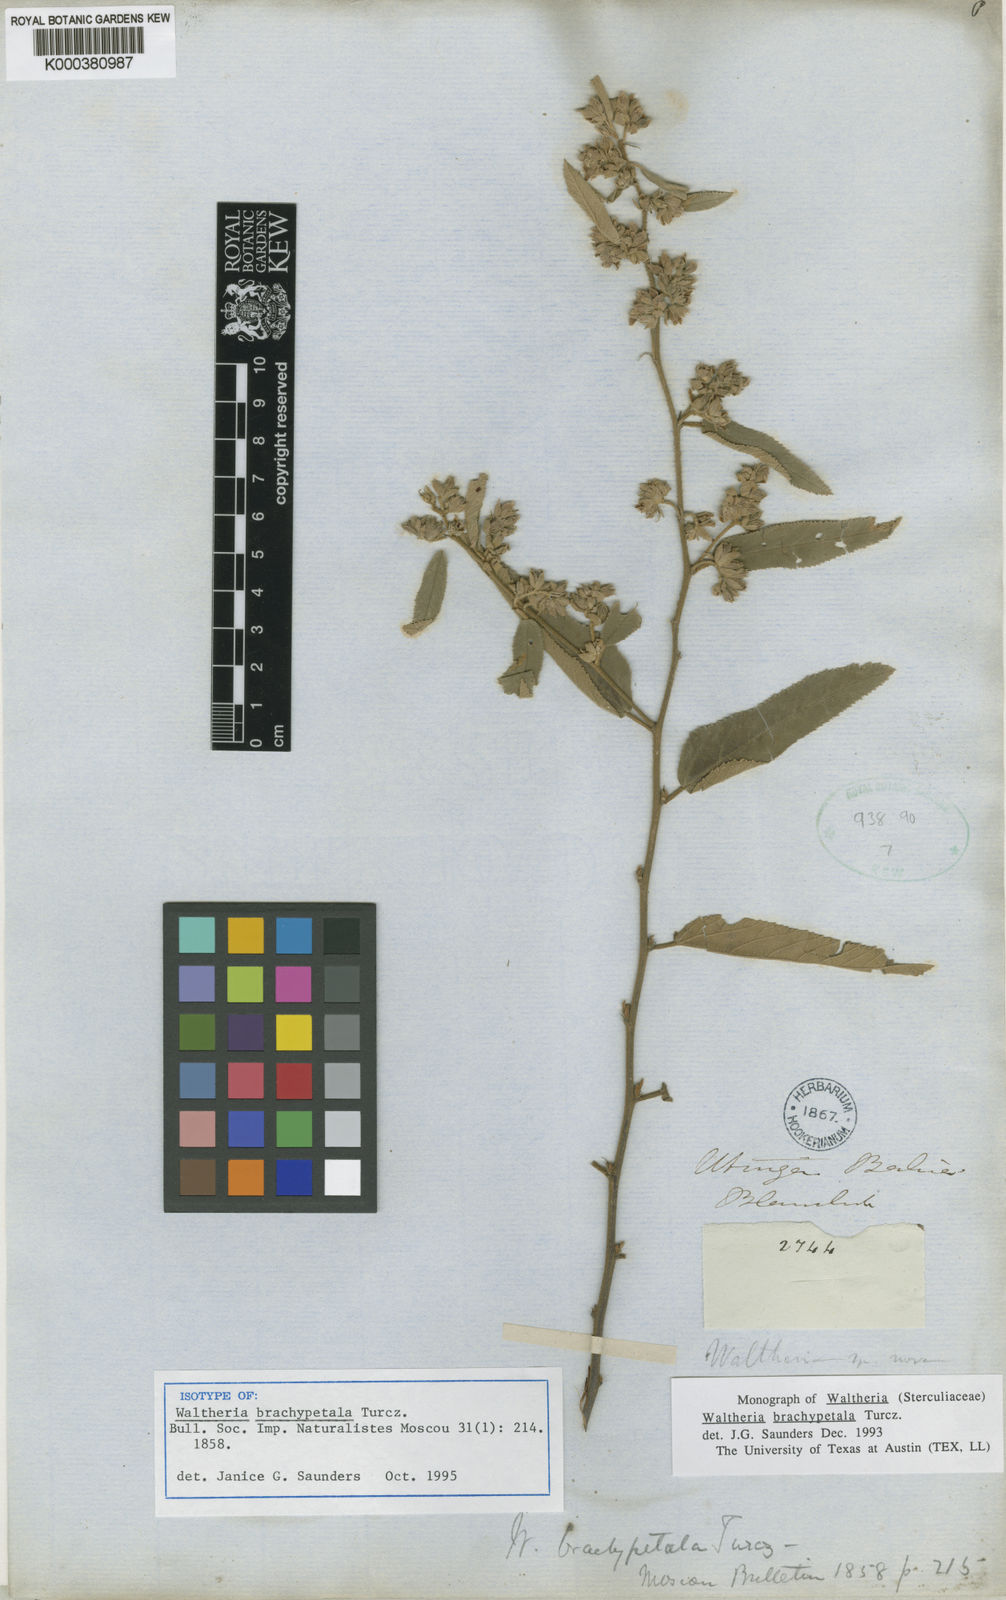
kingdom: Plantae
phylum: Tracheophyta
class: Magnoliopsida
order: Malvales
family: Malvaceae
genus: Waltheria
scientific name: Waltheria ferruginea
